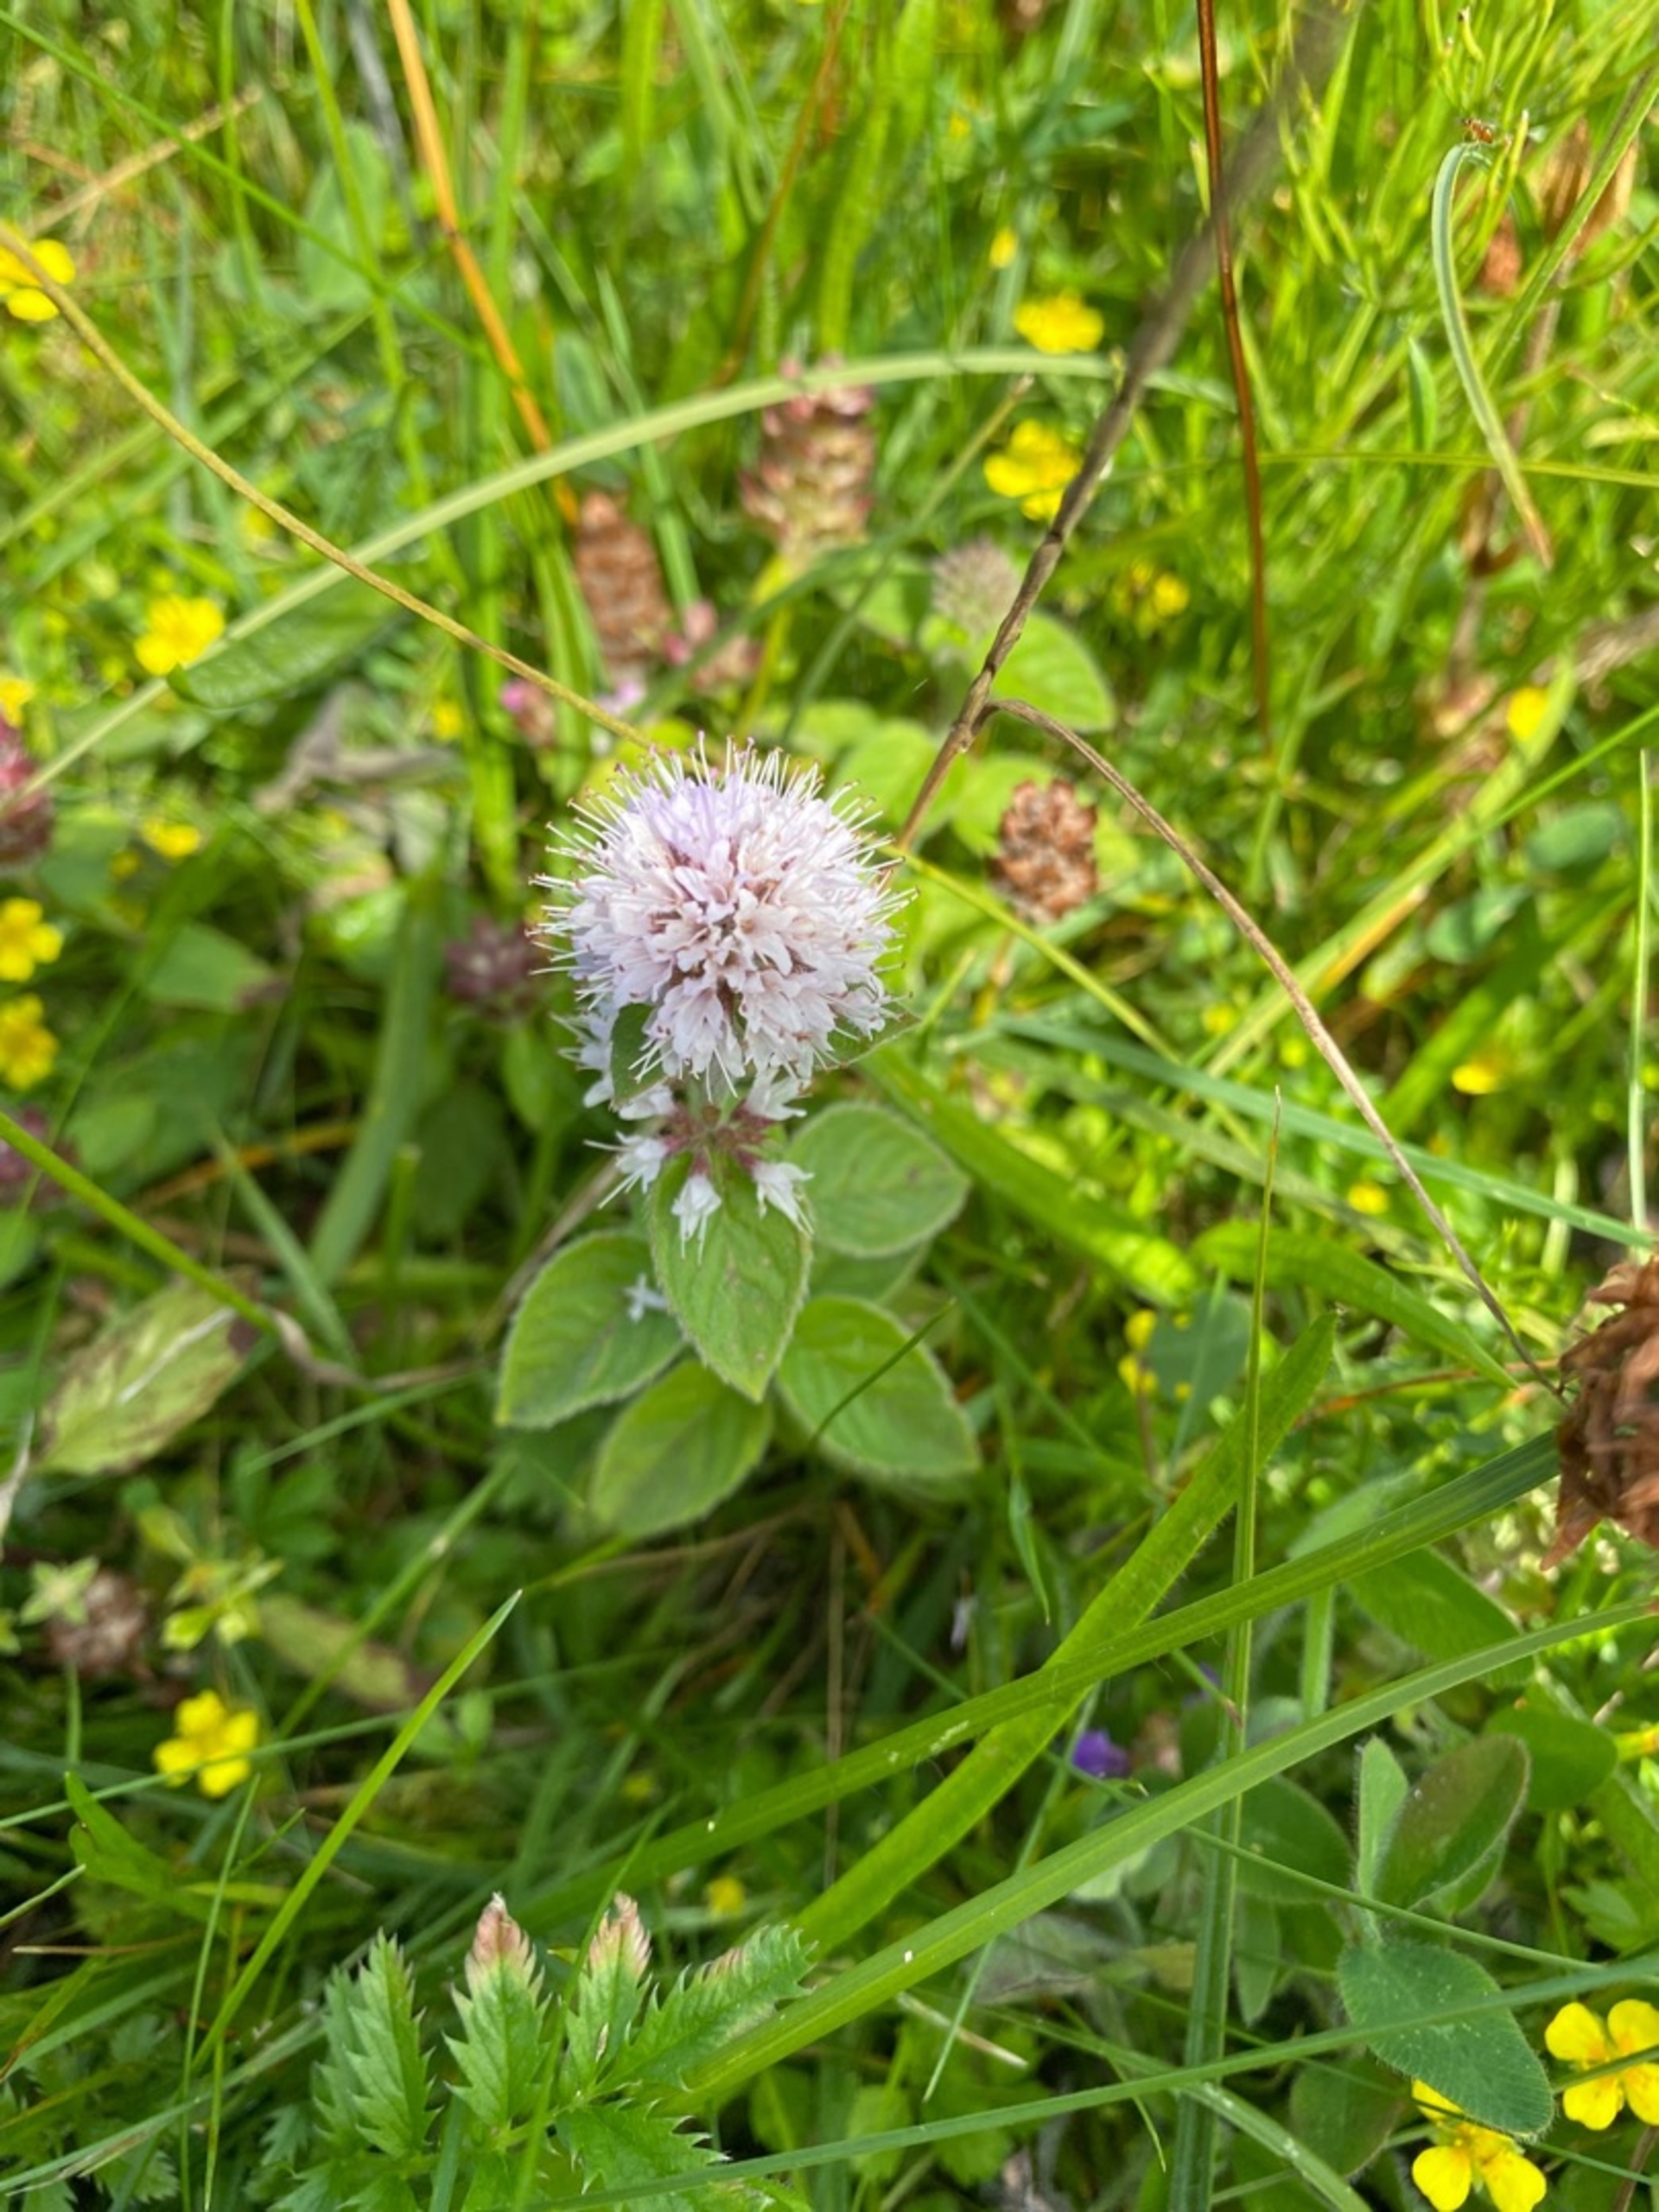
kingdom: Plantae
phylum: Tracheophyta
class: Magnoliopsida
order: Lamiales
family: Lamiaceae
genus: Mentha
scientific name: Mentha aquatica
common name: Vand-mynte
